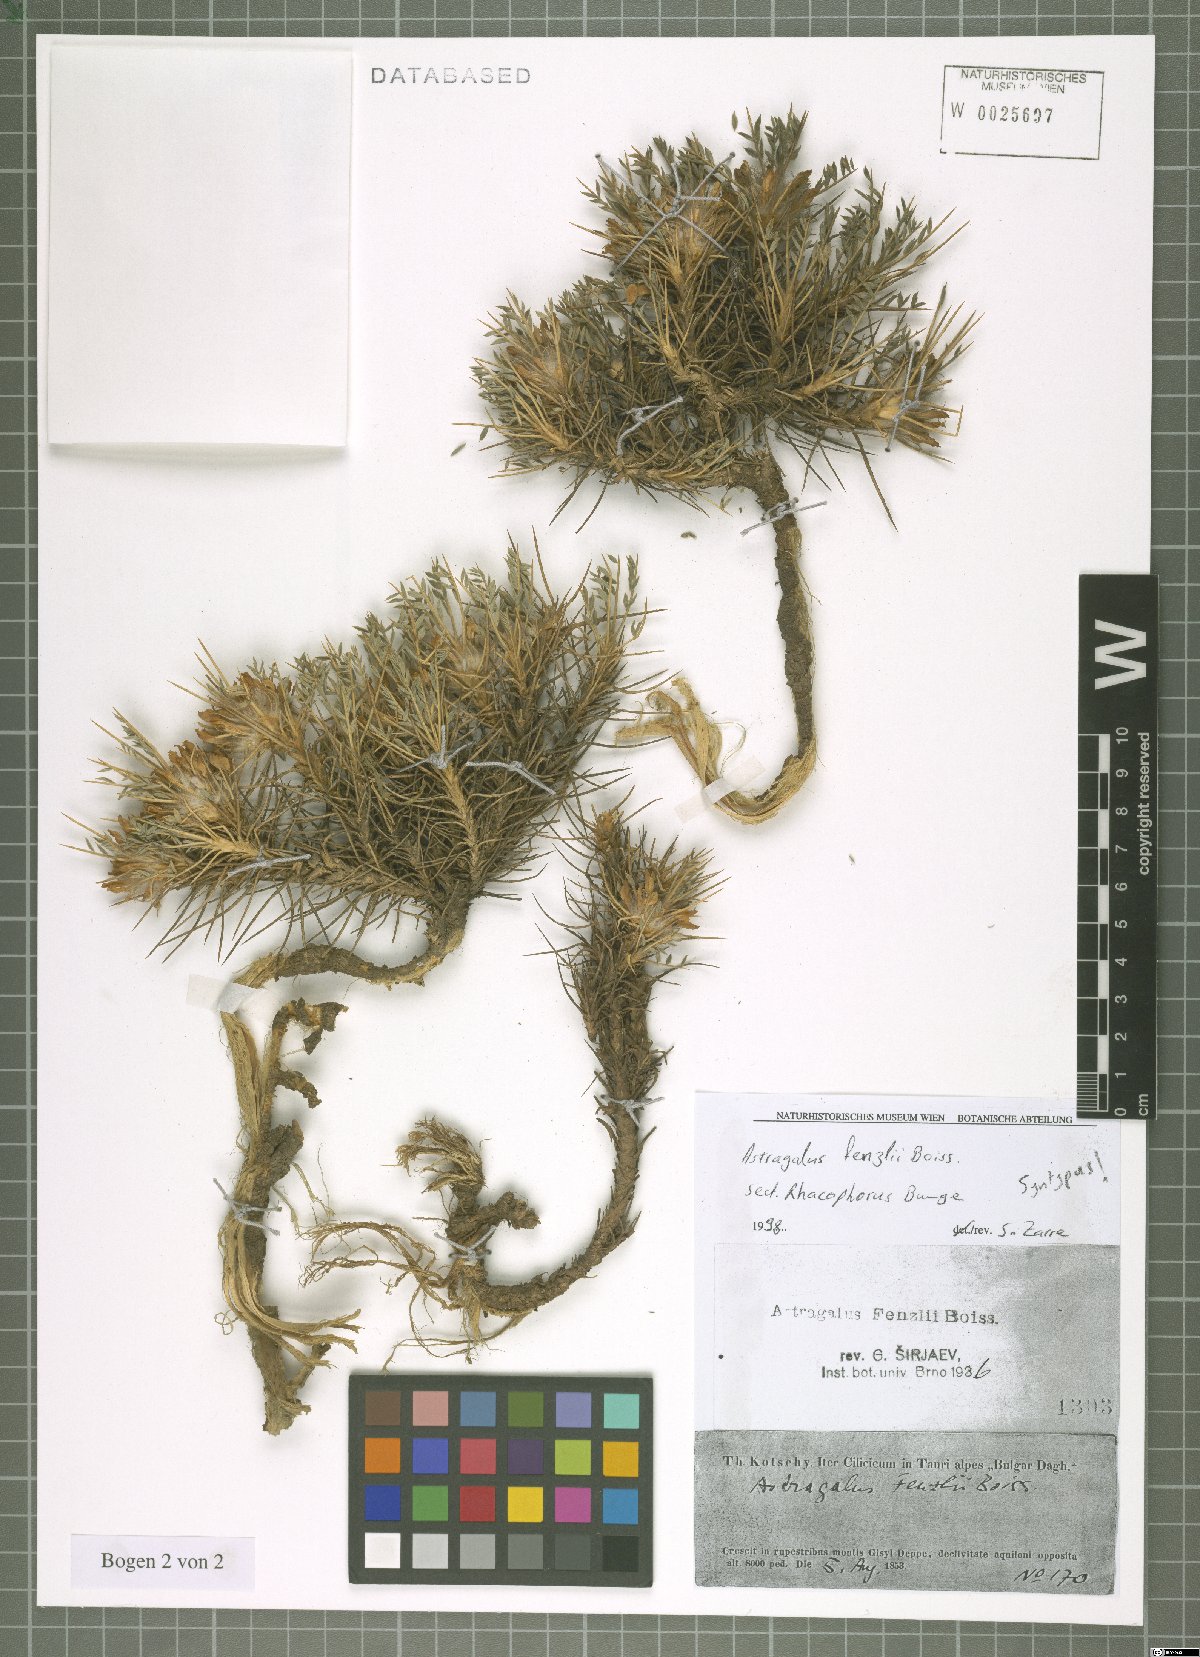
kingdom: Plantae
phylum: Tracheophyta
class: Magnoliopsida
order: Fabales
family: Fabaceae
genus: Astragalus
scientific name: Astragalus plumosus
